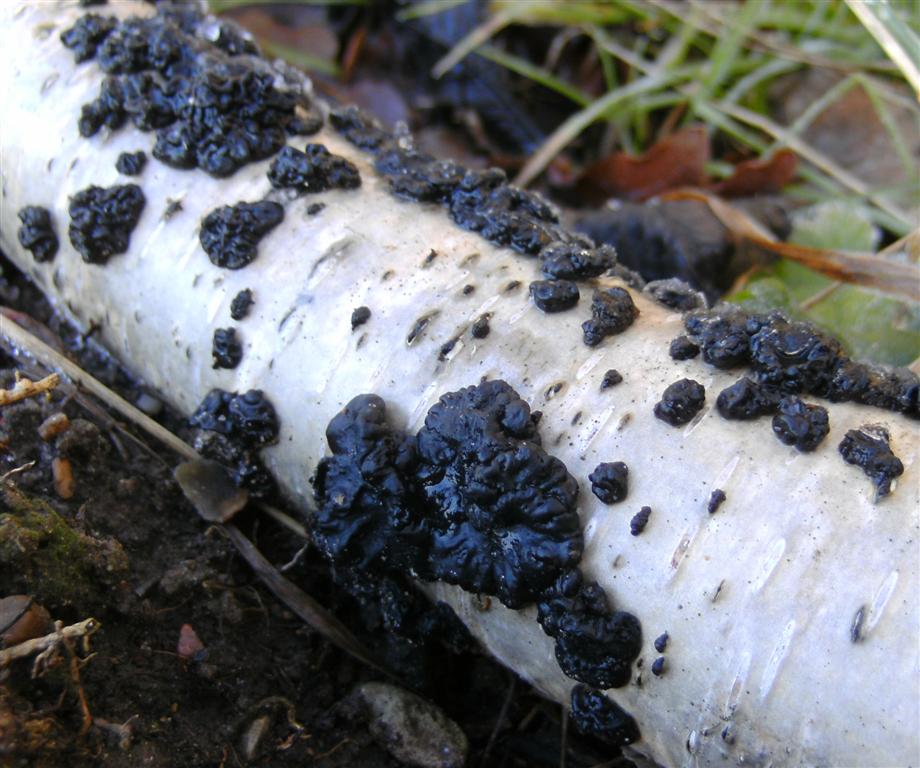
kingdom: Fungi
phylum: Basidiomycota
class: Agaricomycetes
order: Auriculariales
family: Auriculariaceae
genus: Exidia
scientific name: Exidia nigricans
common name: almindelig bævretop
